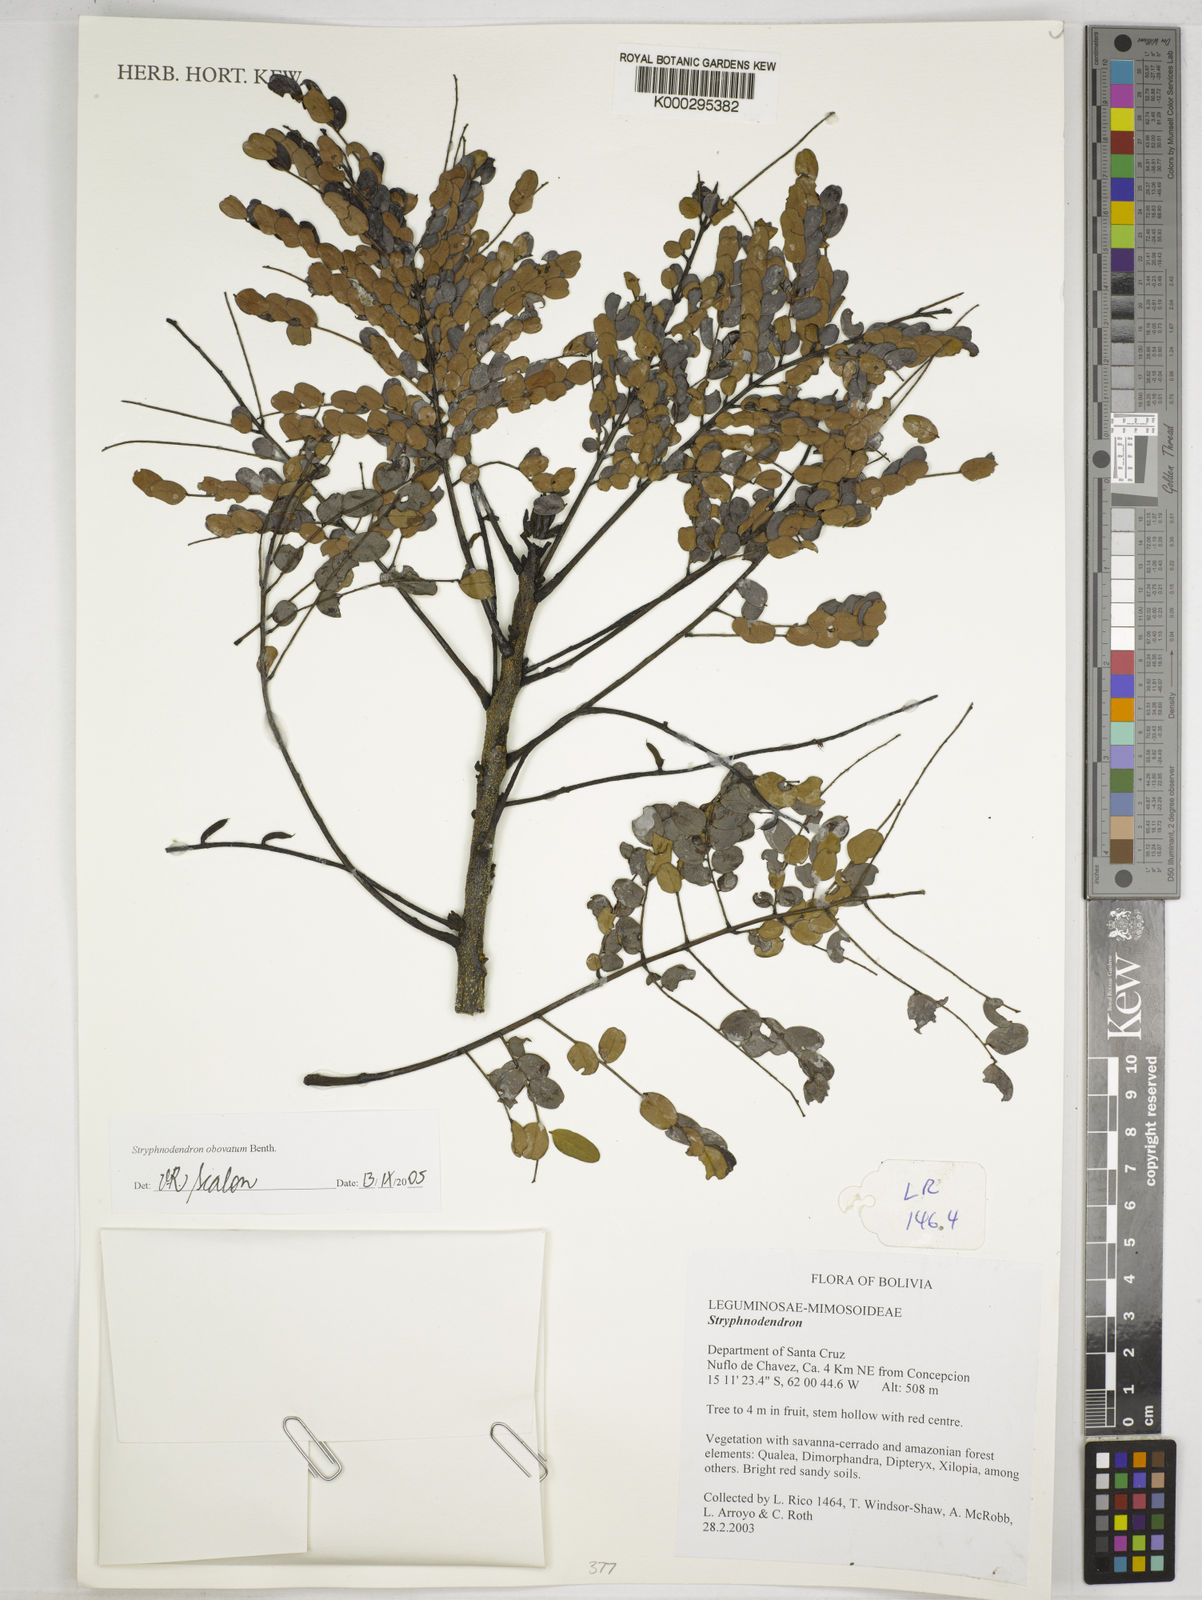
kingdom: Plantae
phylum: Tracheophyta
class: Magnoliopsida
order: Fabales
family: Fabaceae
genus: Stryphnodendron
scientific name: Stryphnodendron
